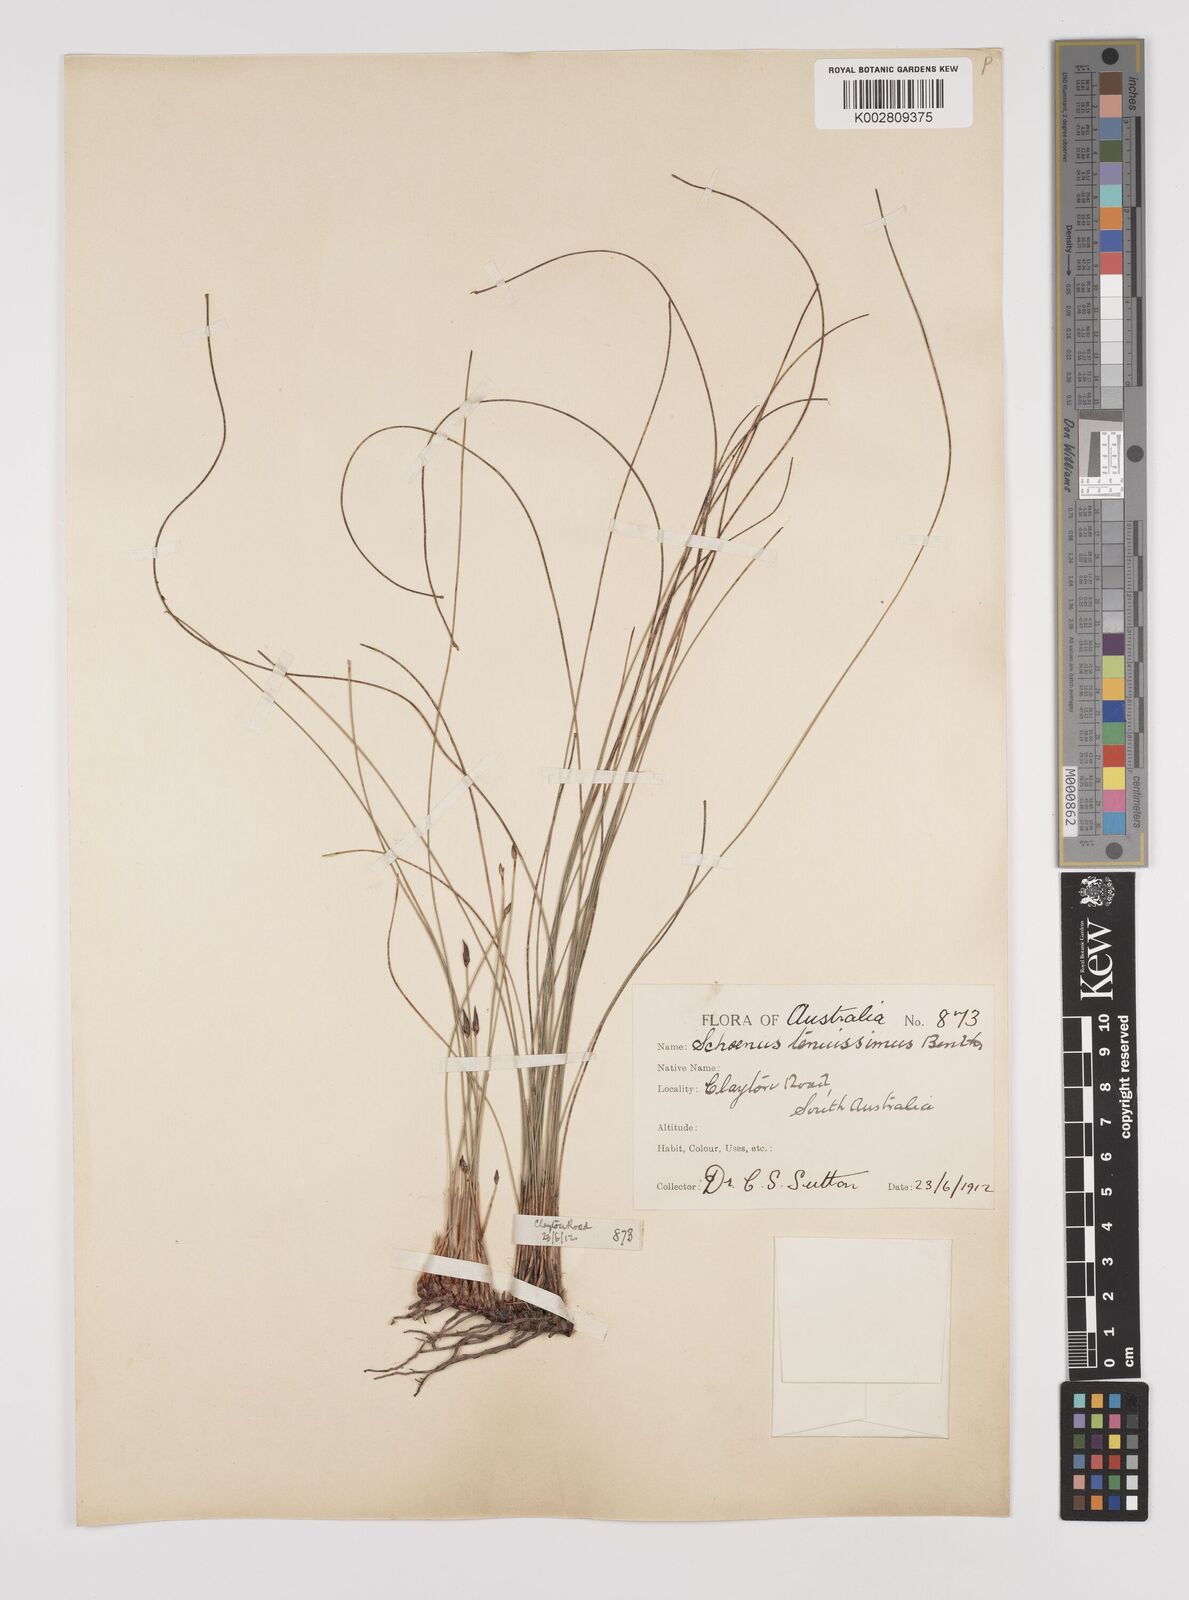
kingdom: Plantae
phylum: Tracheophyta
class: Liliopsida
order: Poales
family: Cyperaceae
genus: Schoenus
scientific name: Schoenus tenuissimus
